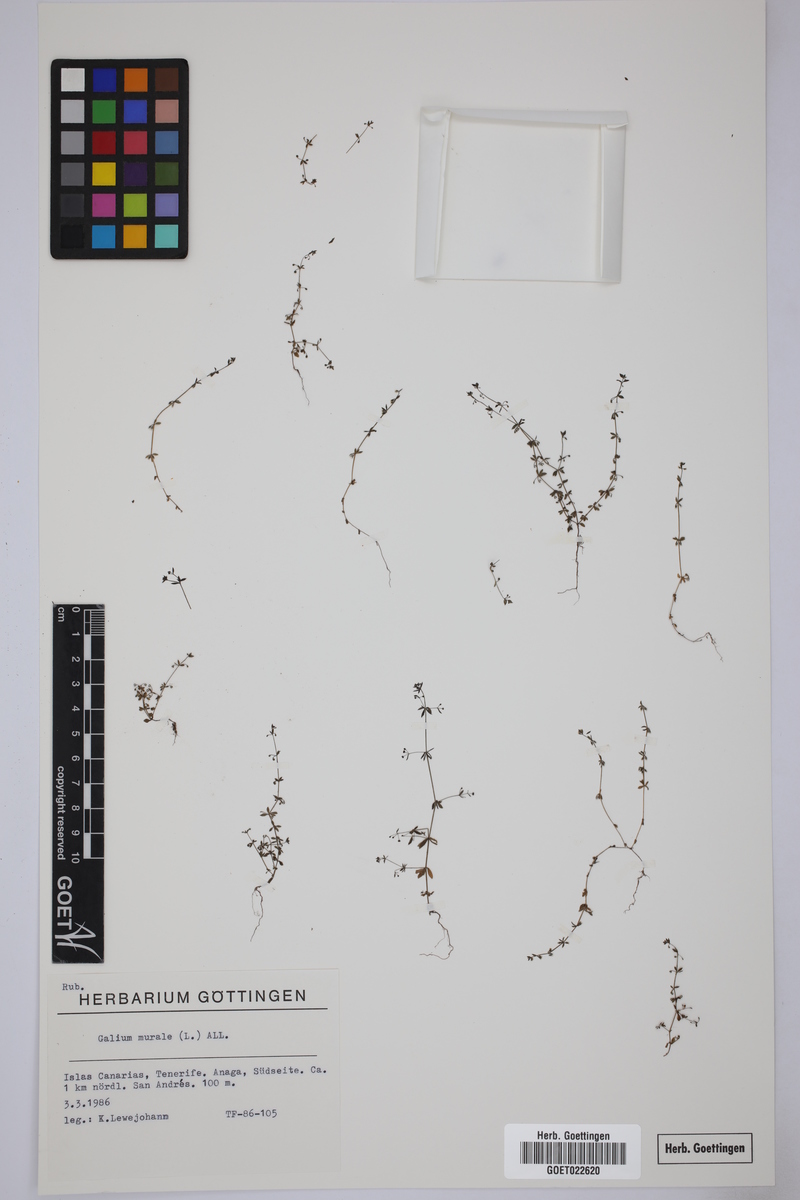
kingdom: Plantae
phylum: Tracheophyta
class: Magnoliopsida
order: Gentianales
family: Rubiaceae
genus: Galium
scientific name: Galium murale
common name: Yellow wall bedstraw
